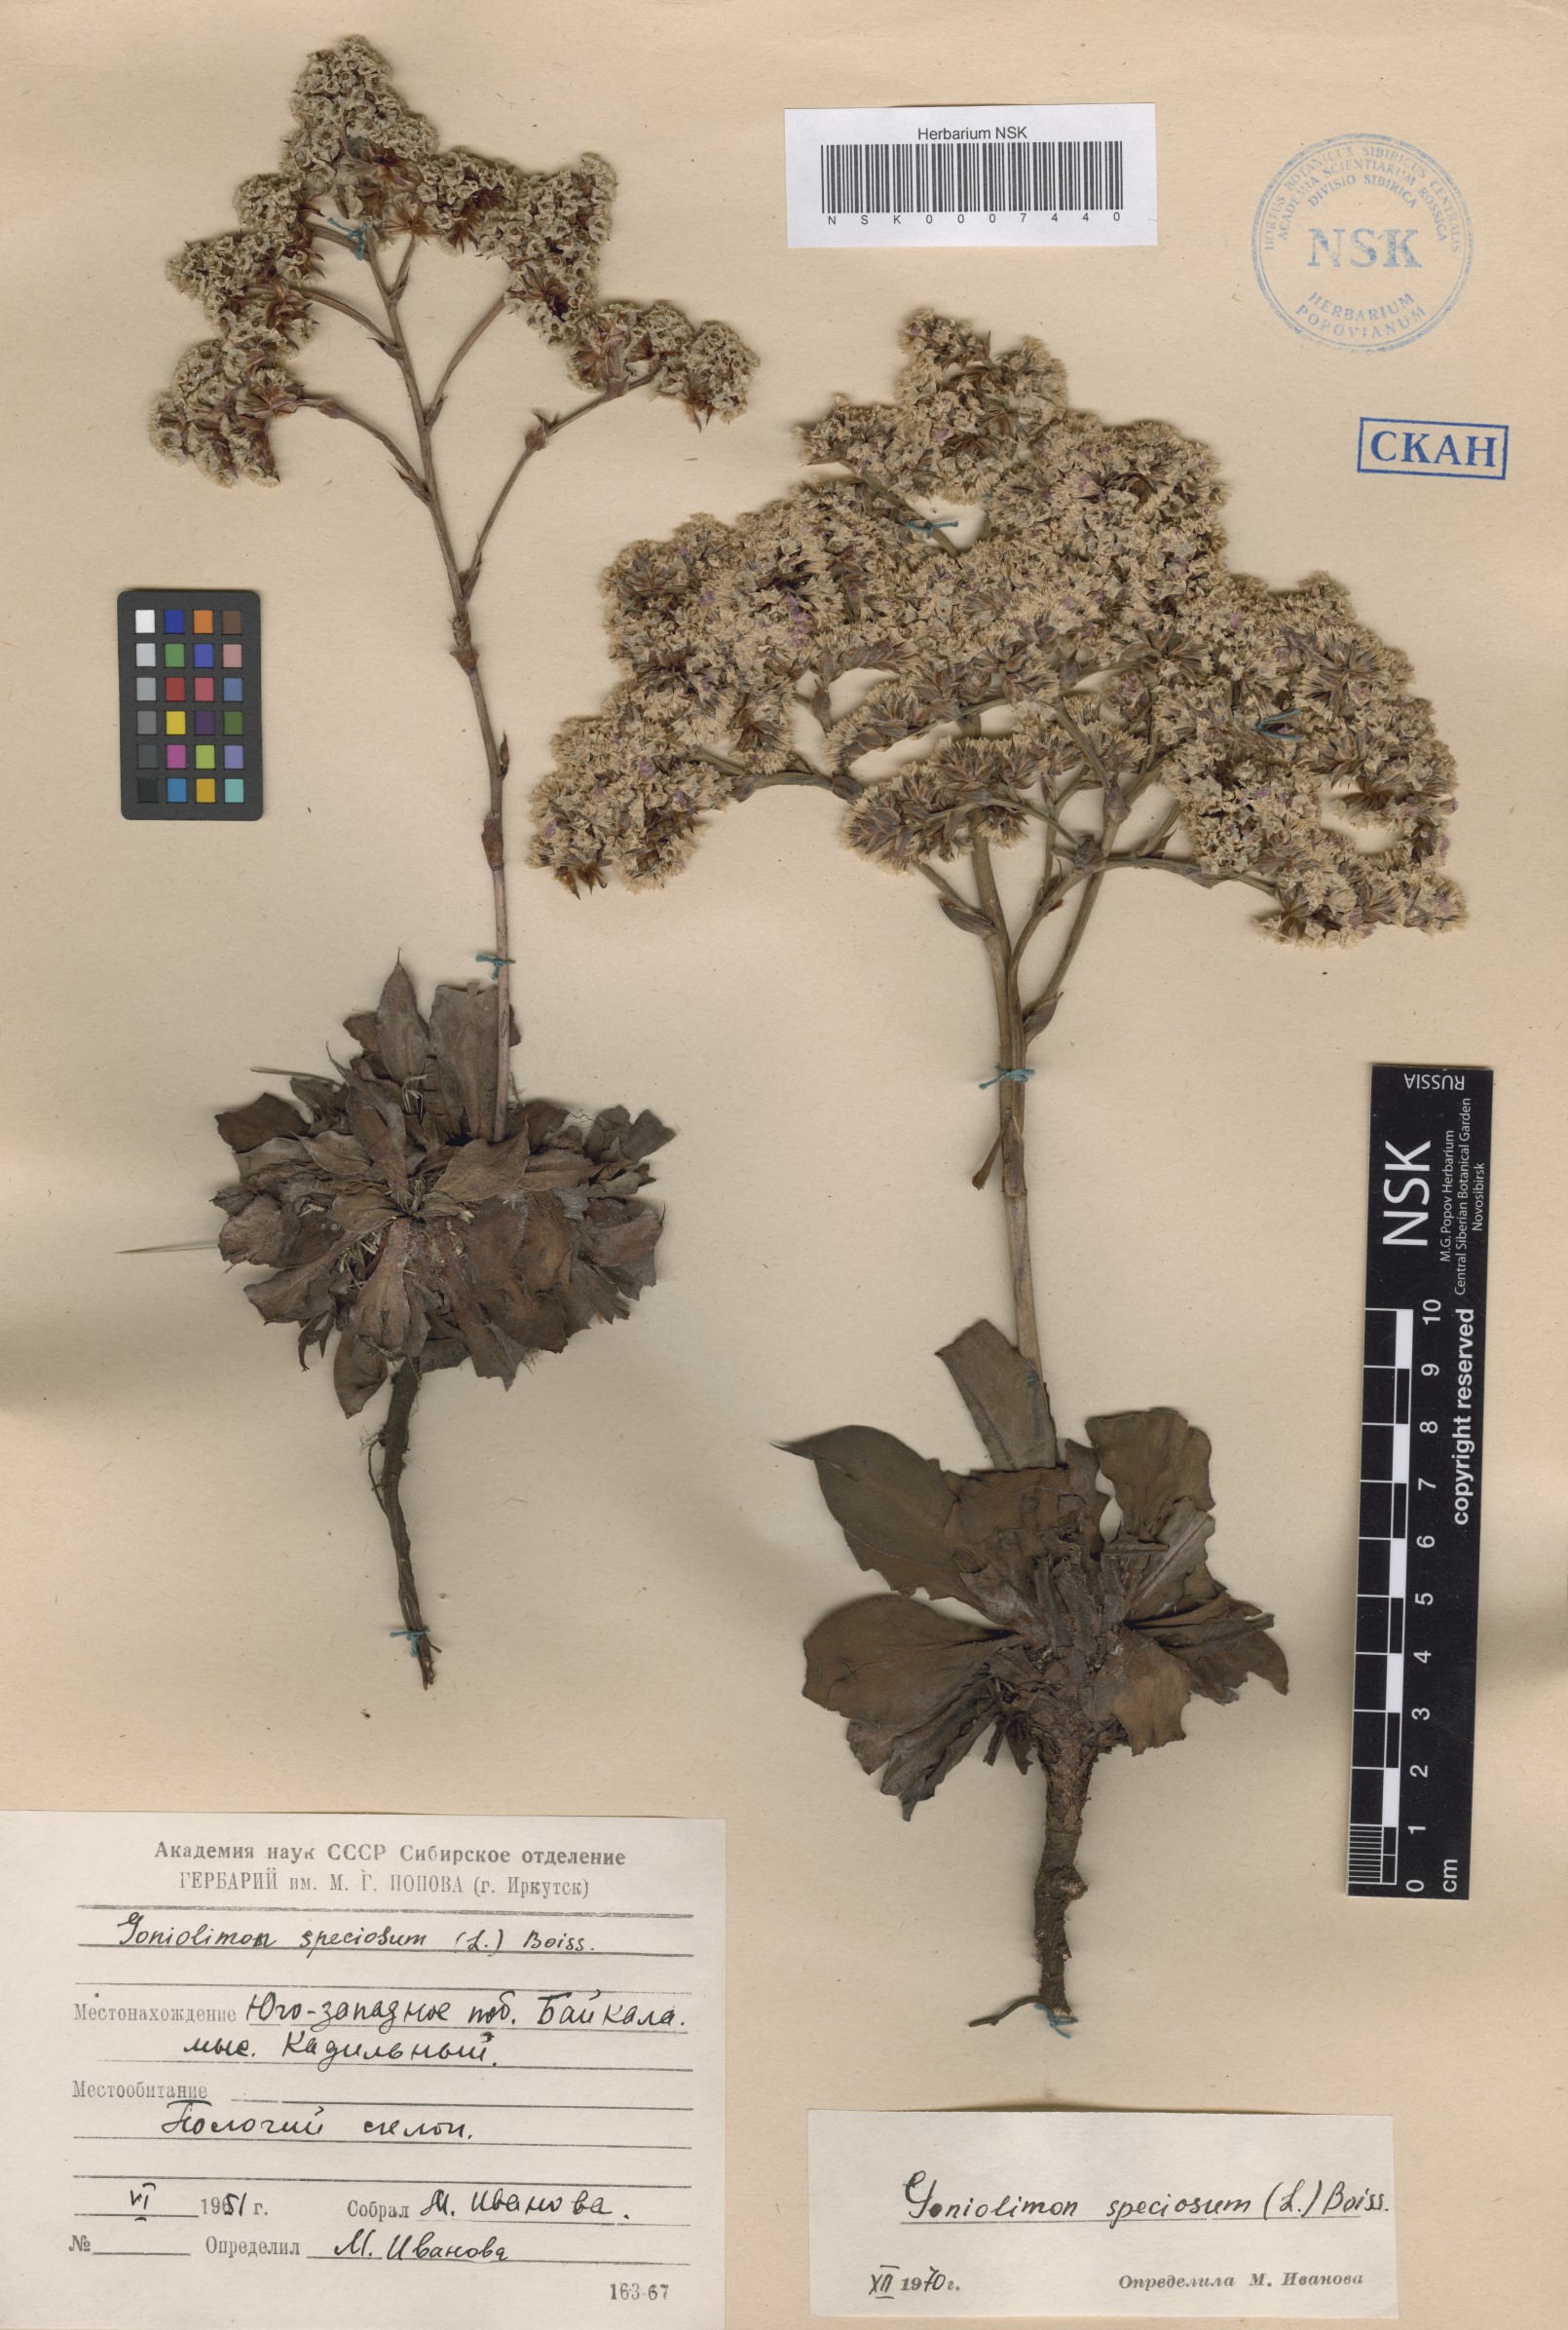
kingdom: Plantae
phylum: Tracheophyta
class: Magnoliopsida
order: Caryophyllales
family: Plumbaginaceae
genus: Goniolimon
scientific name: Goniolimon speciosum
